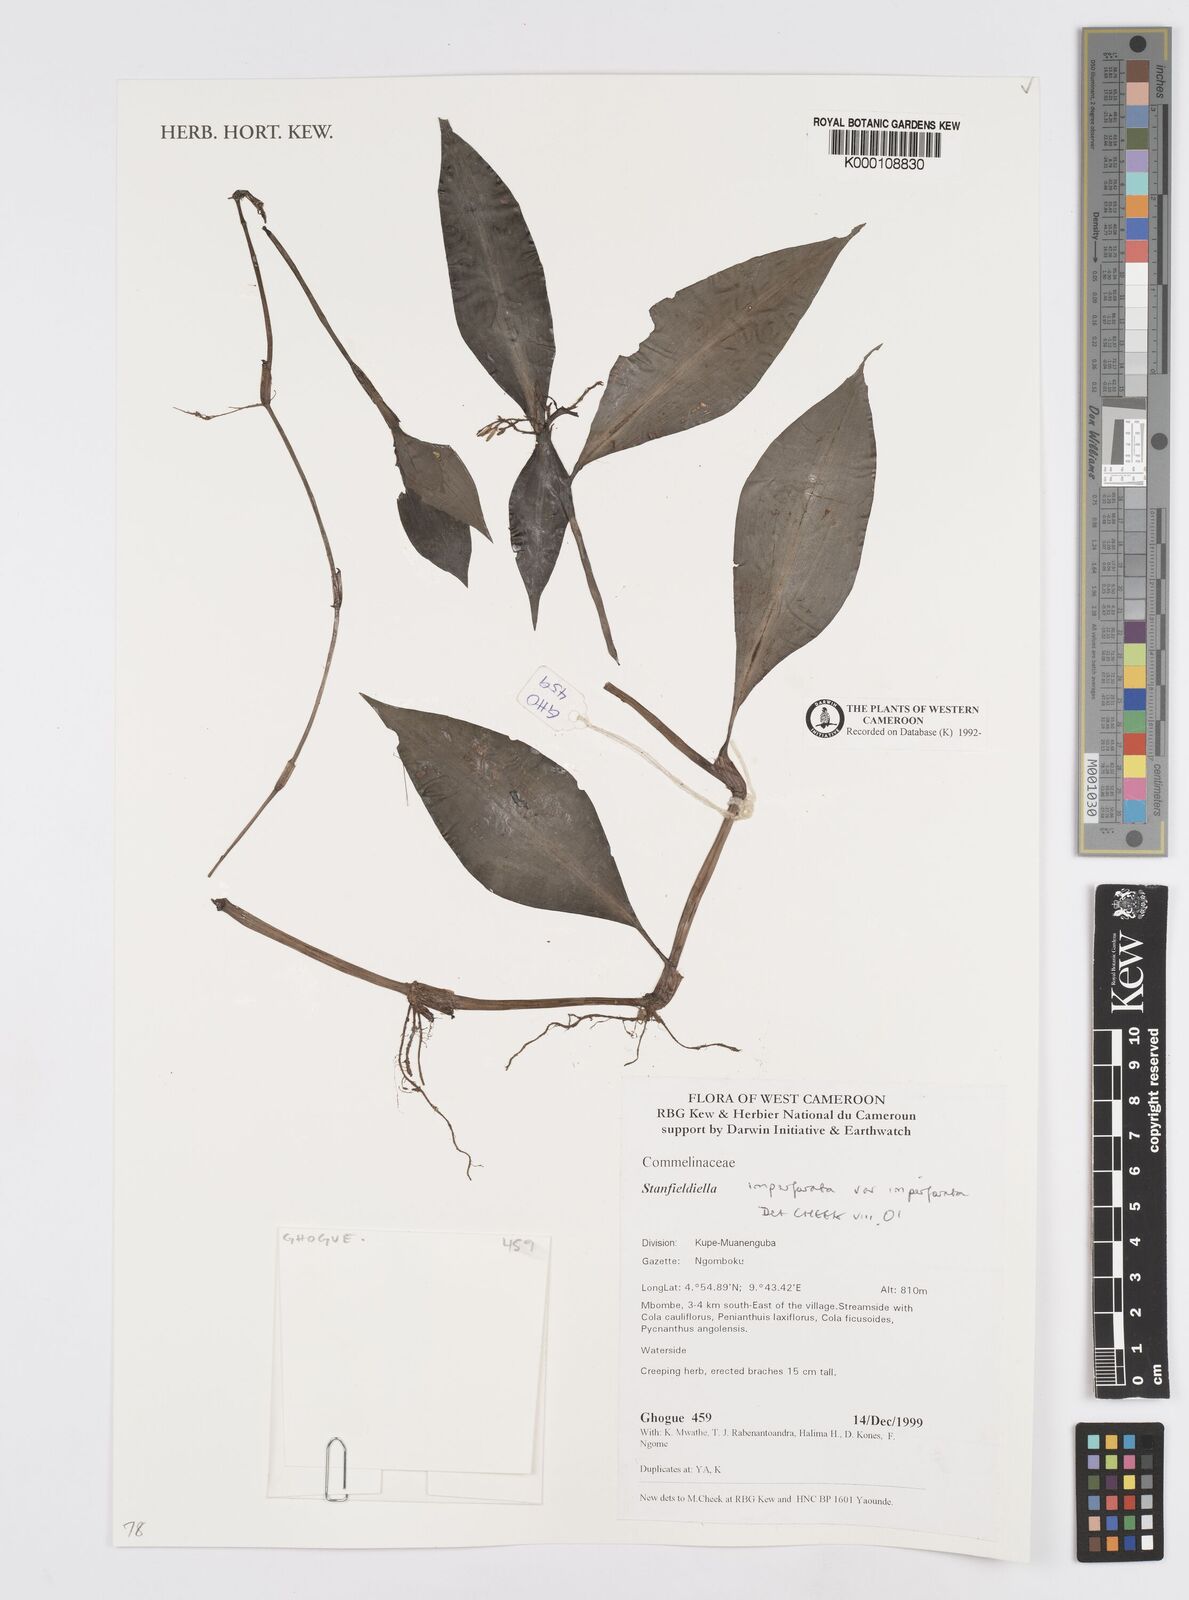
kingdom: Plantae
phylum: Tracheophyta
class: Liliopsida
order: Commelinales
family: Commelinaceae
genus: Stanfieldiella
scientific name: Stanfieldiella imperforata
